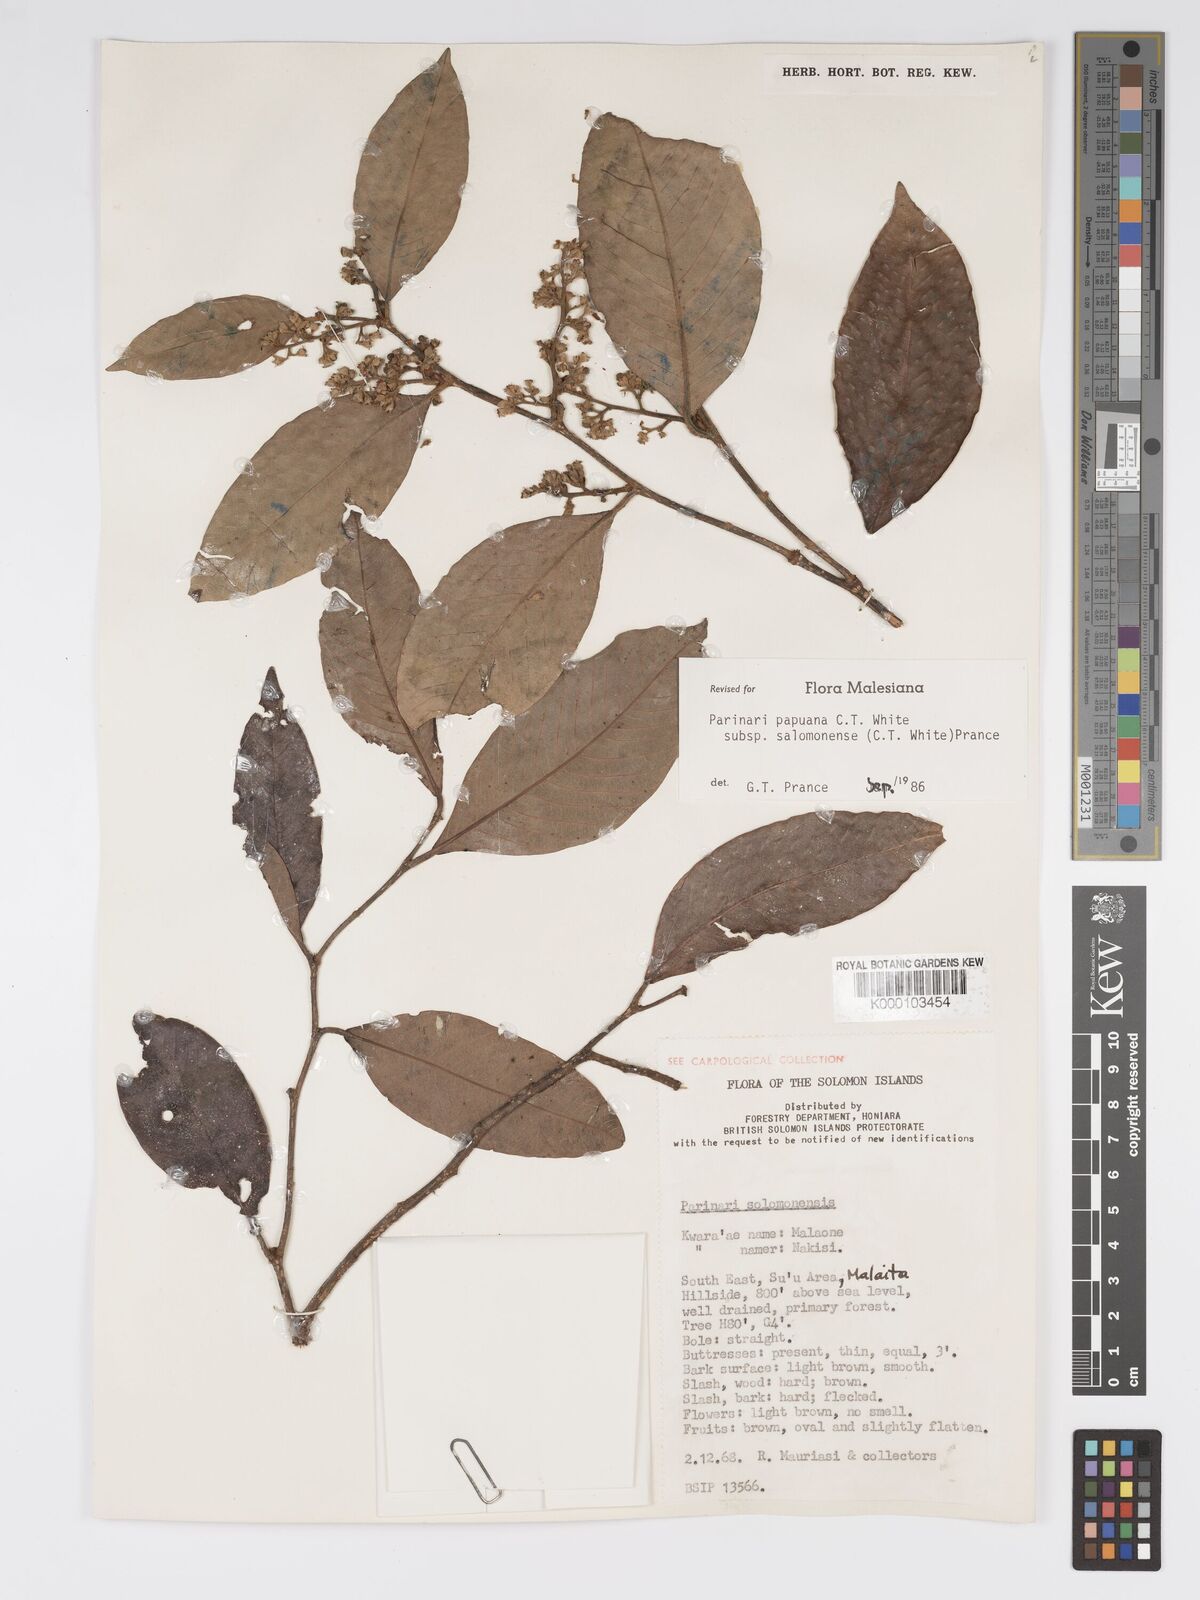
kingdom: Plantae
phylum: Tracheophyta
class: Magnoliopsida
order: Malpighiales
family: Chrysobalanaceae
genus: Parinari
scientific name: Parinari papuana
